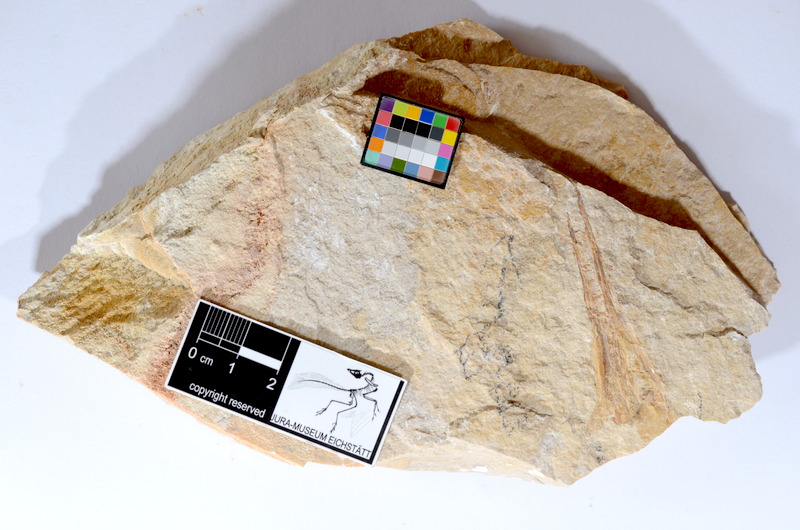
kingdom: Animalia
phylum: Chordata
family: Aspidorhynchidae
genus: Belonostomus
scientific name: Belonostomus tenuirostris
